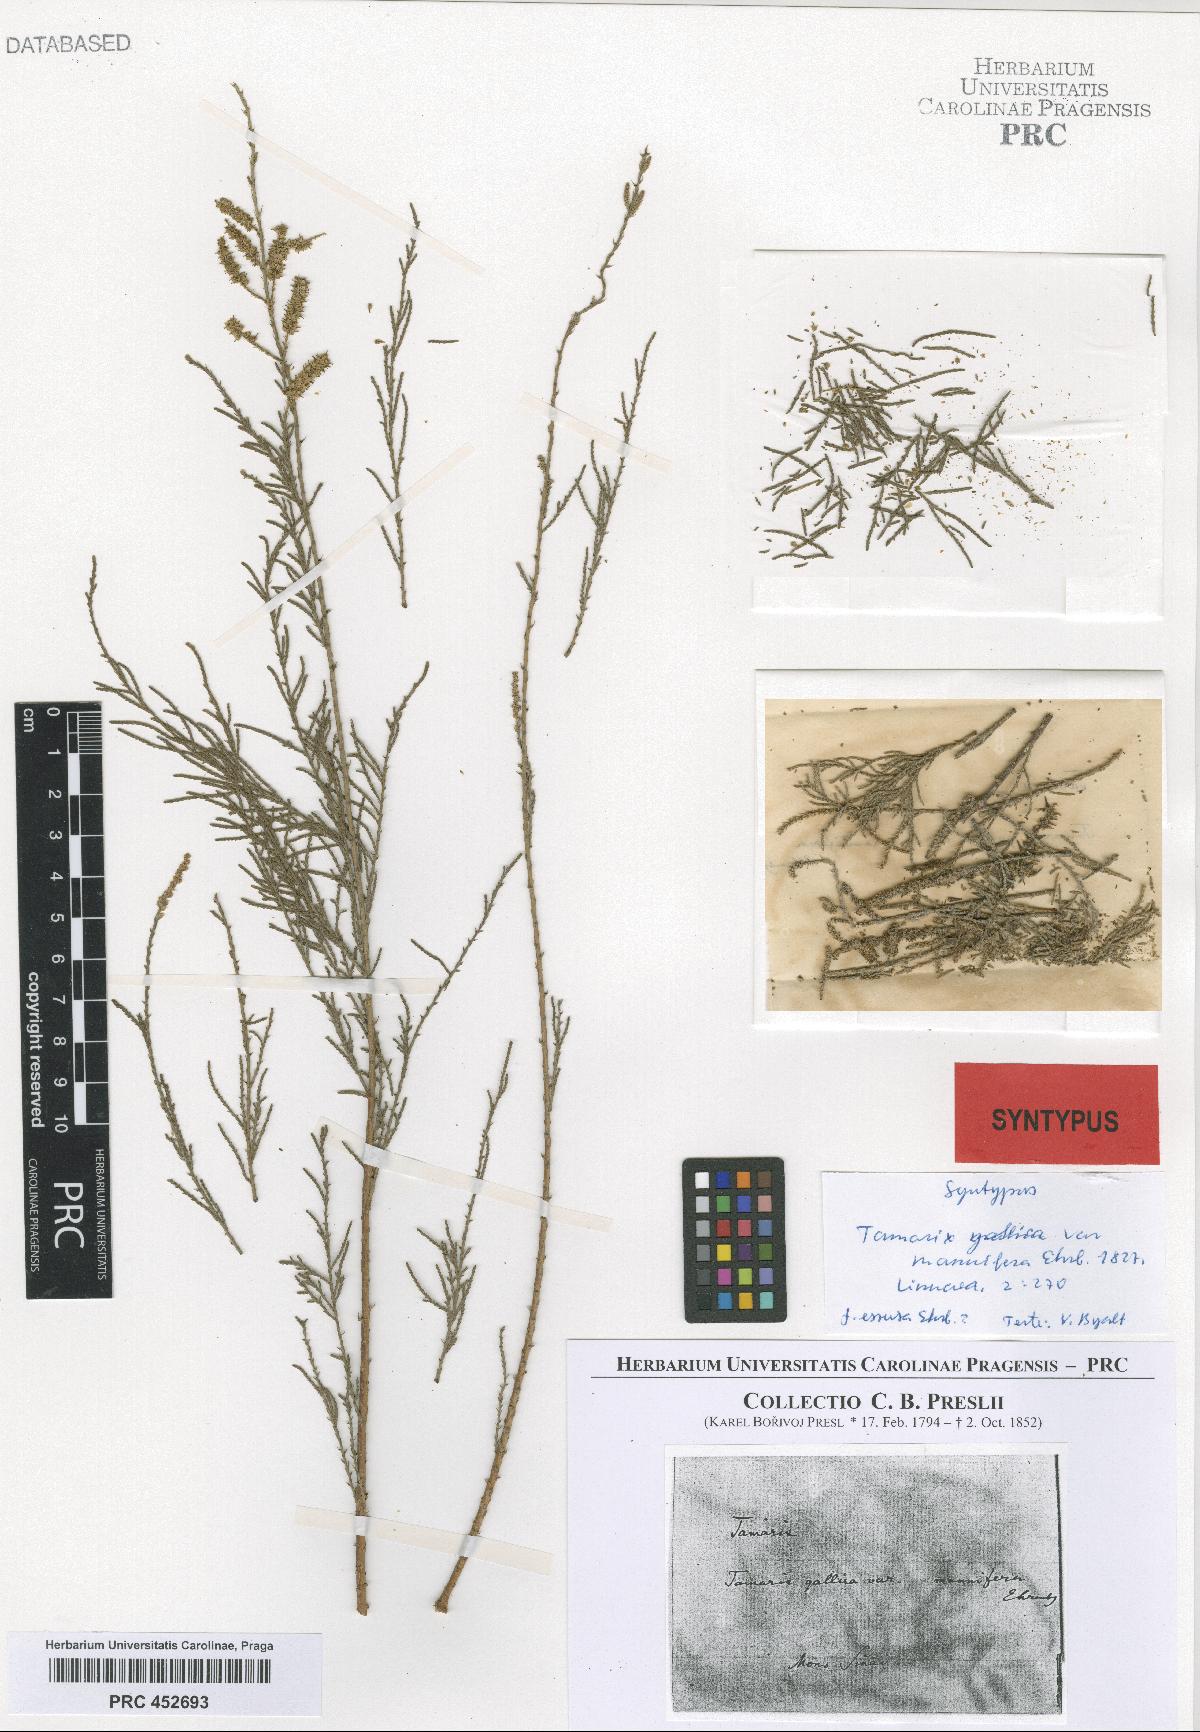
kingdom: Plantae
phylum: Tracheophyta
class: Magnoliopsida
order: Caryophyllales
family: Tamaricaceae
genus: Tamarix
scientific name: Tamarix gallica
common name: Tamarisk
